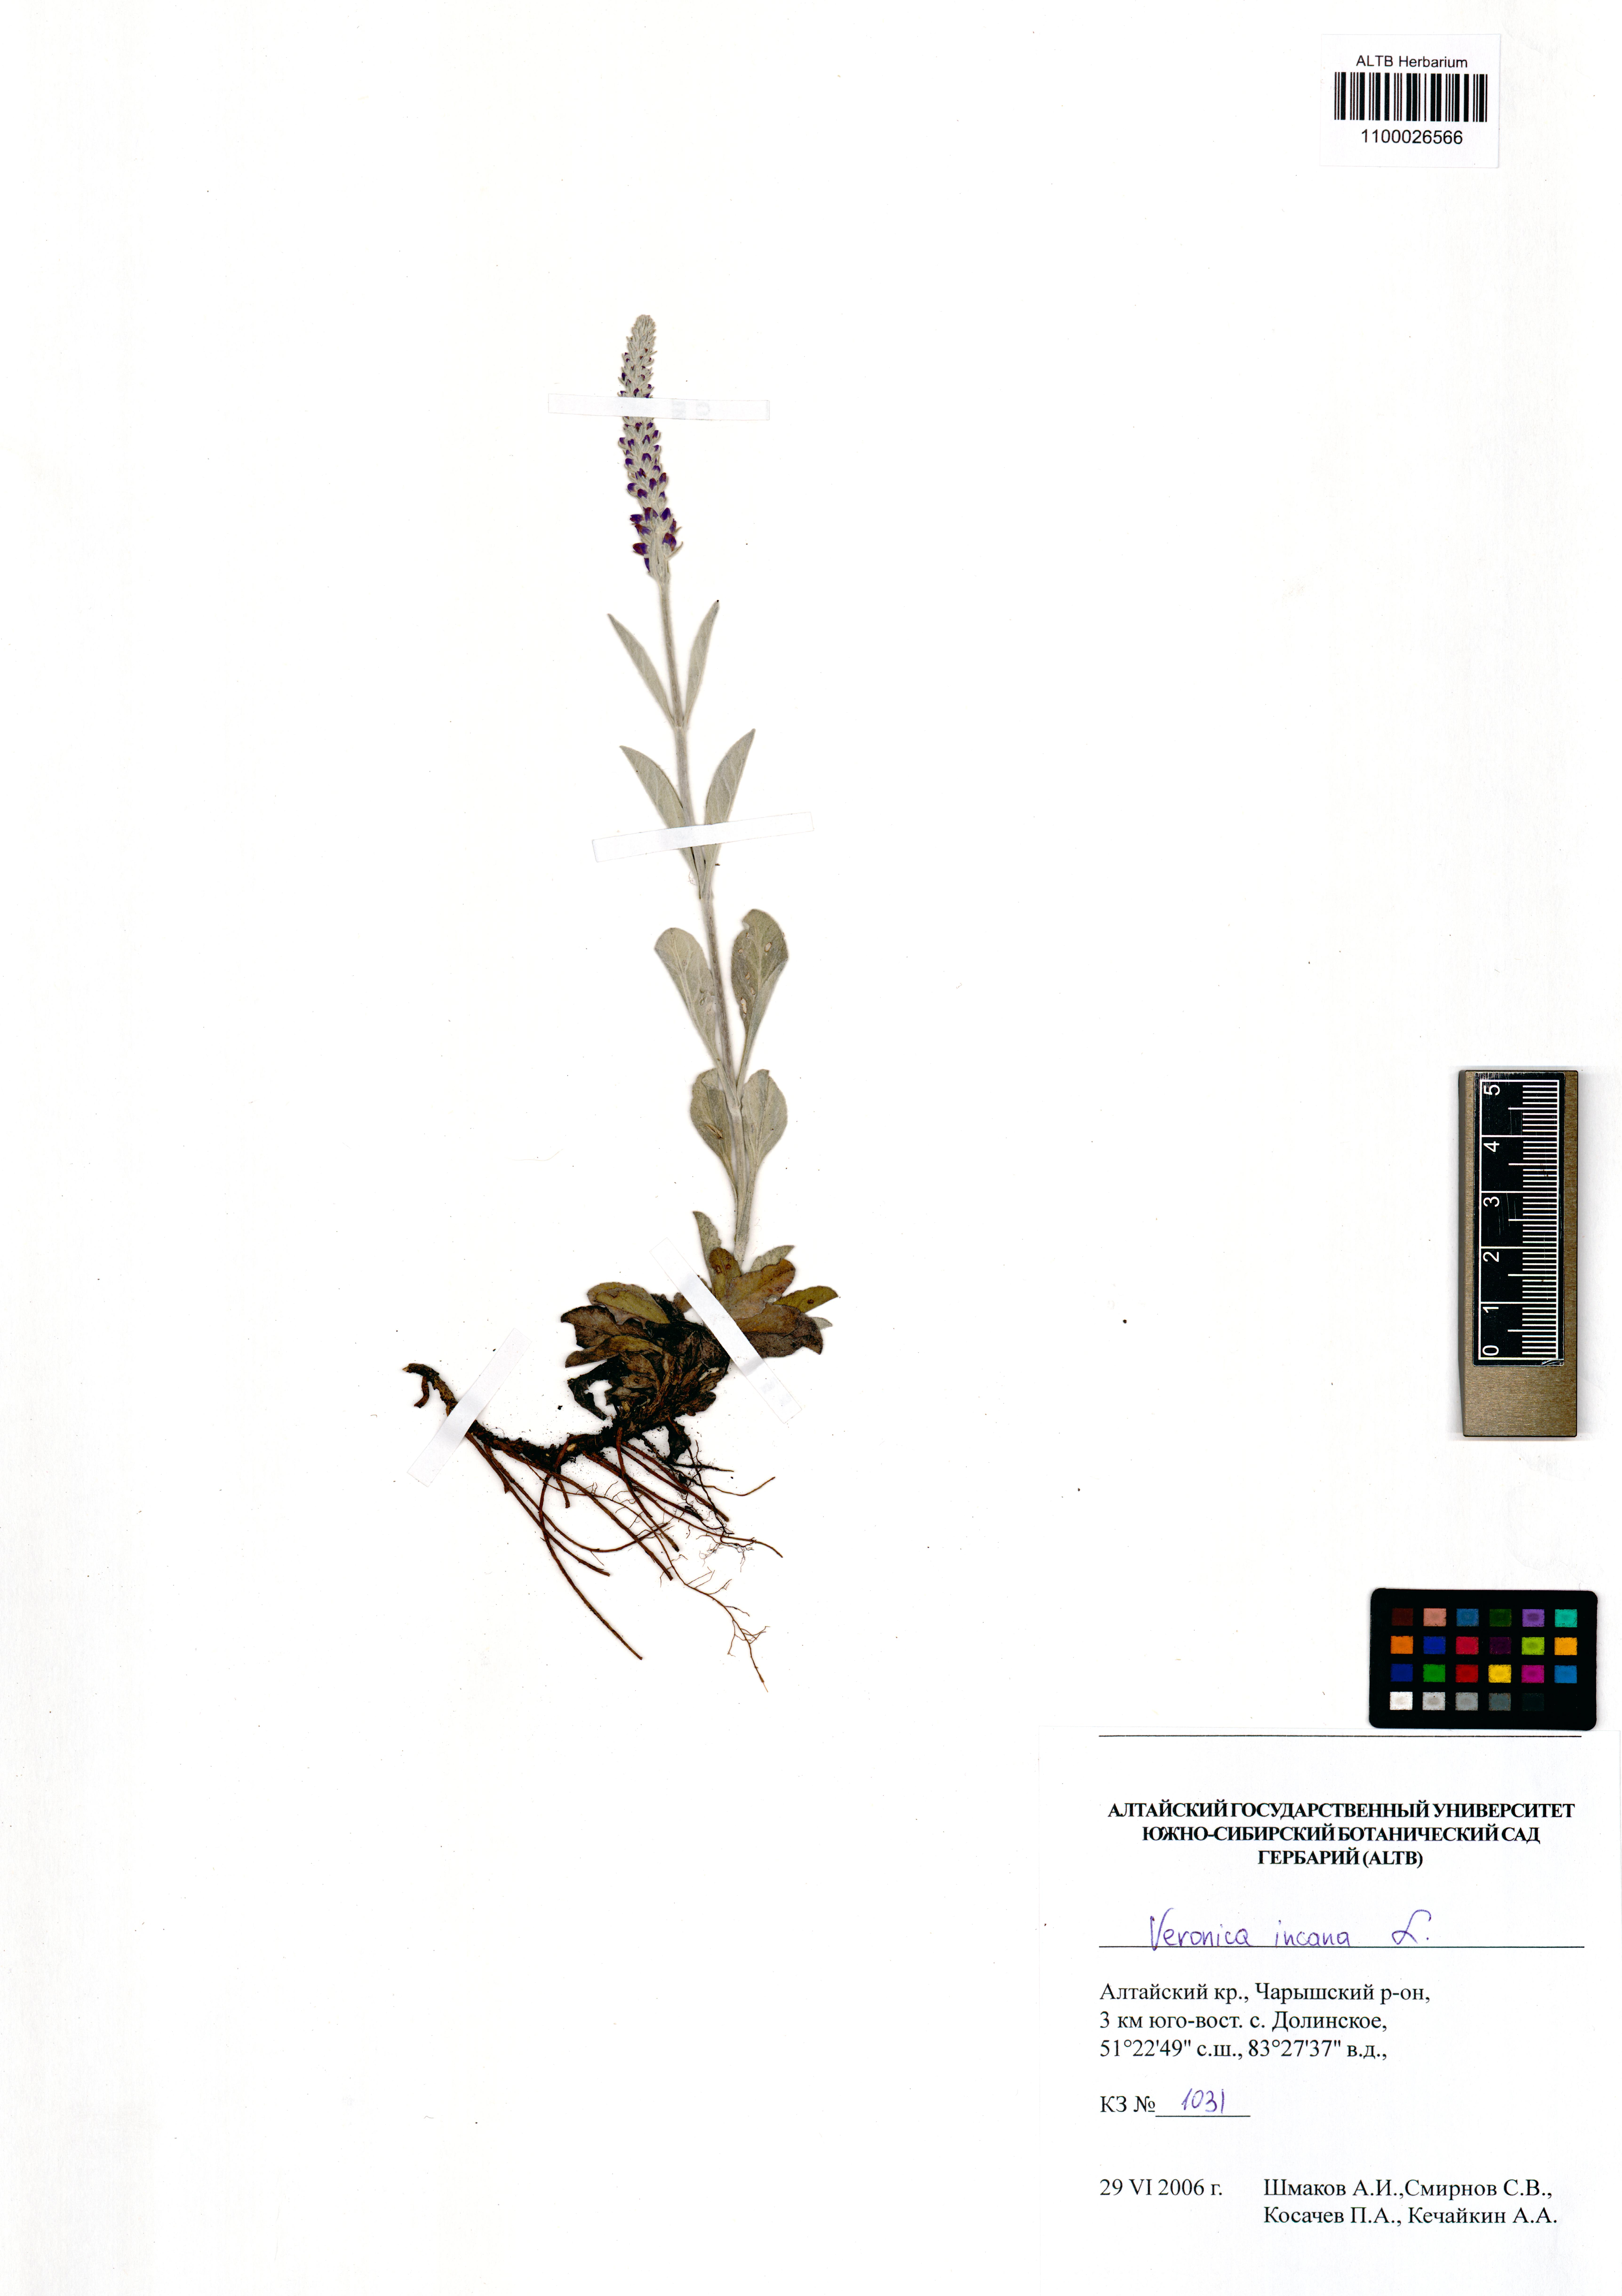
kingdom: Plantae
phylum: Tracheophyta
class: Magnoliopsida
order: Lamiales
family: Plantaginaceae
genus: Veronica
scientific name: Veronica incana
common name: Silver speedwell
